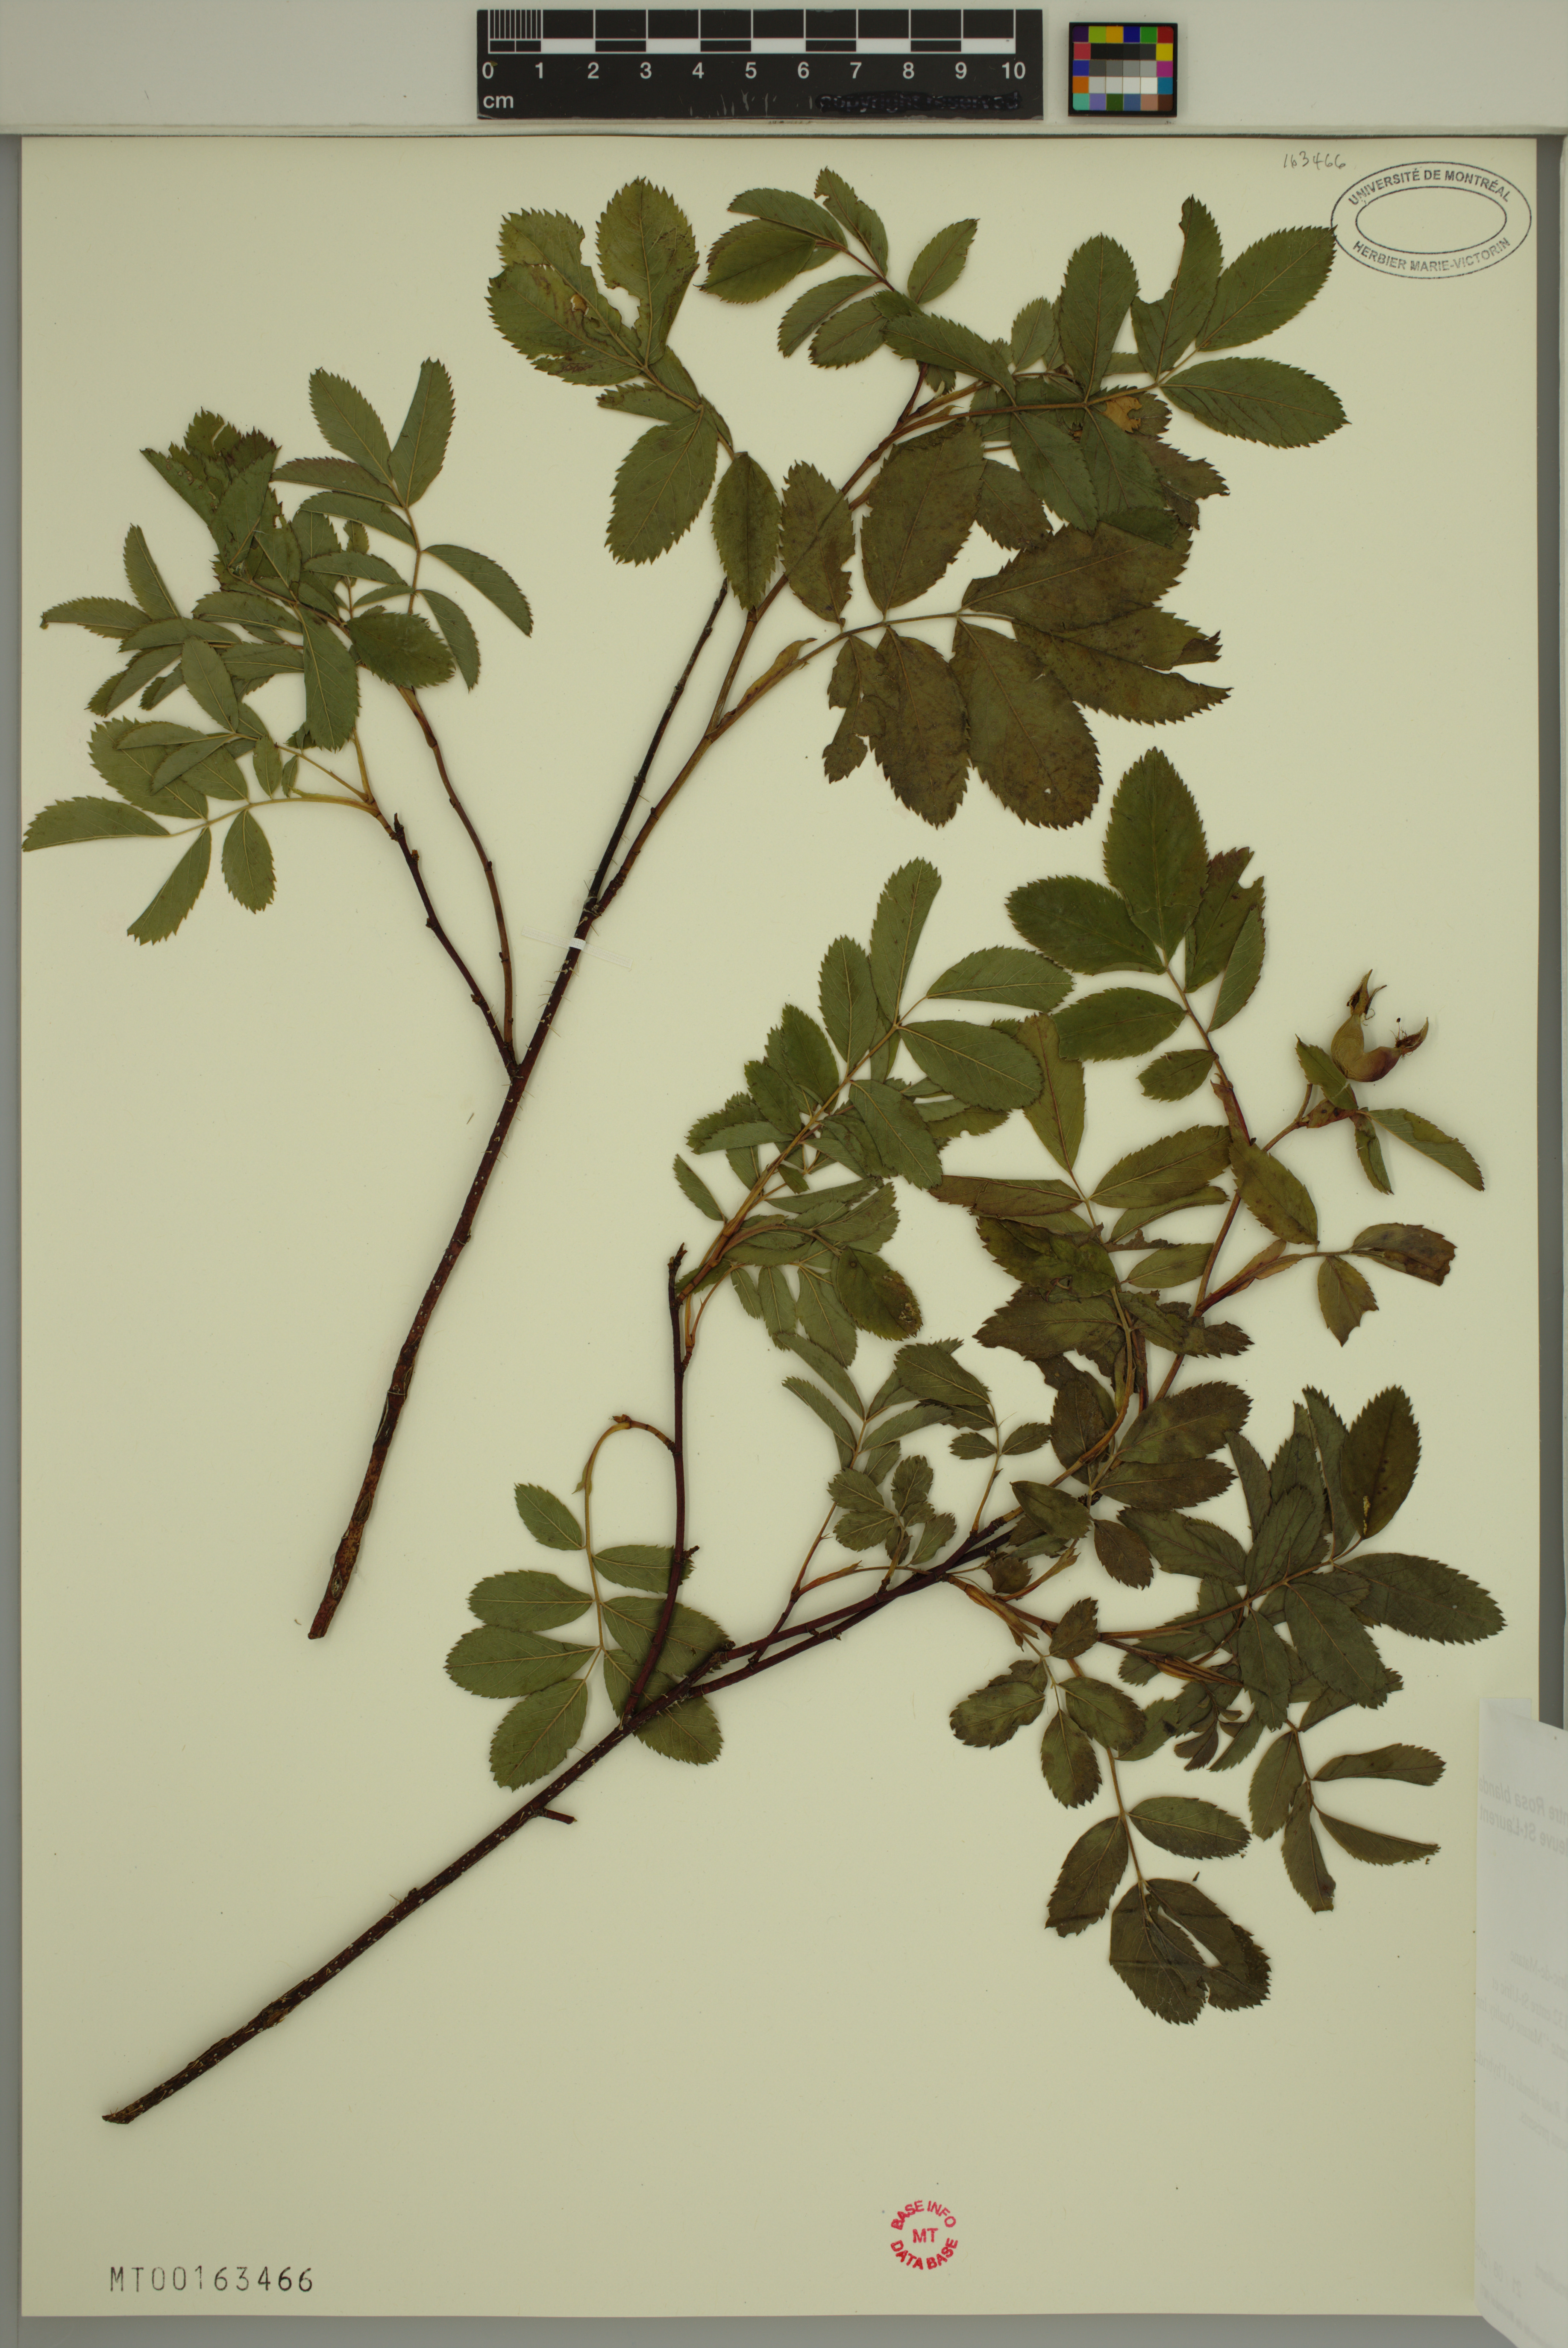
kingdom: Plantae
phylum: Tracheophyta
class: Magnoliopsida
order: Rosales
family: Rosaceae
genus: Rosa
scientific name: Rosa blanda
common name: Smooth rose
